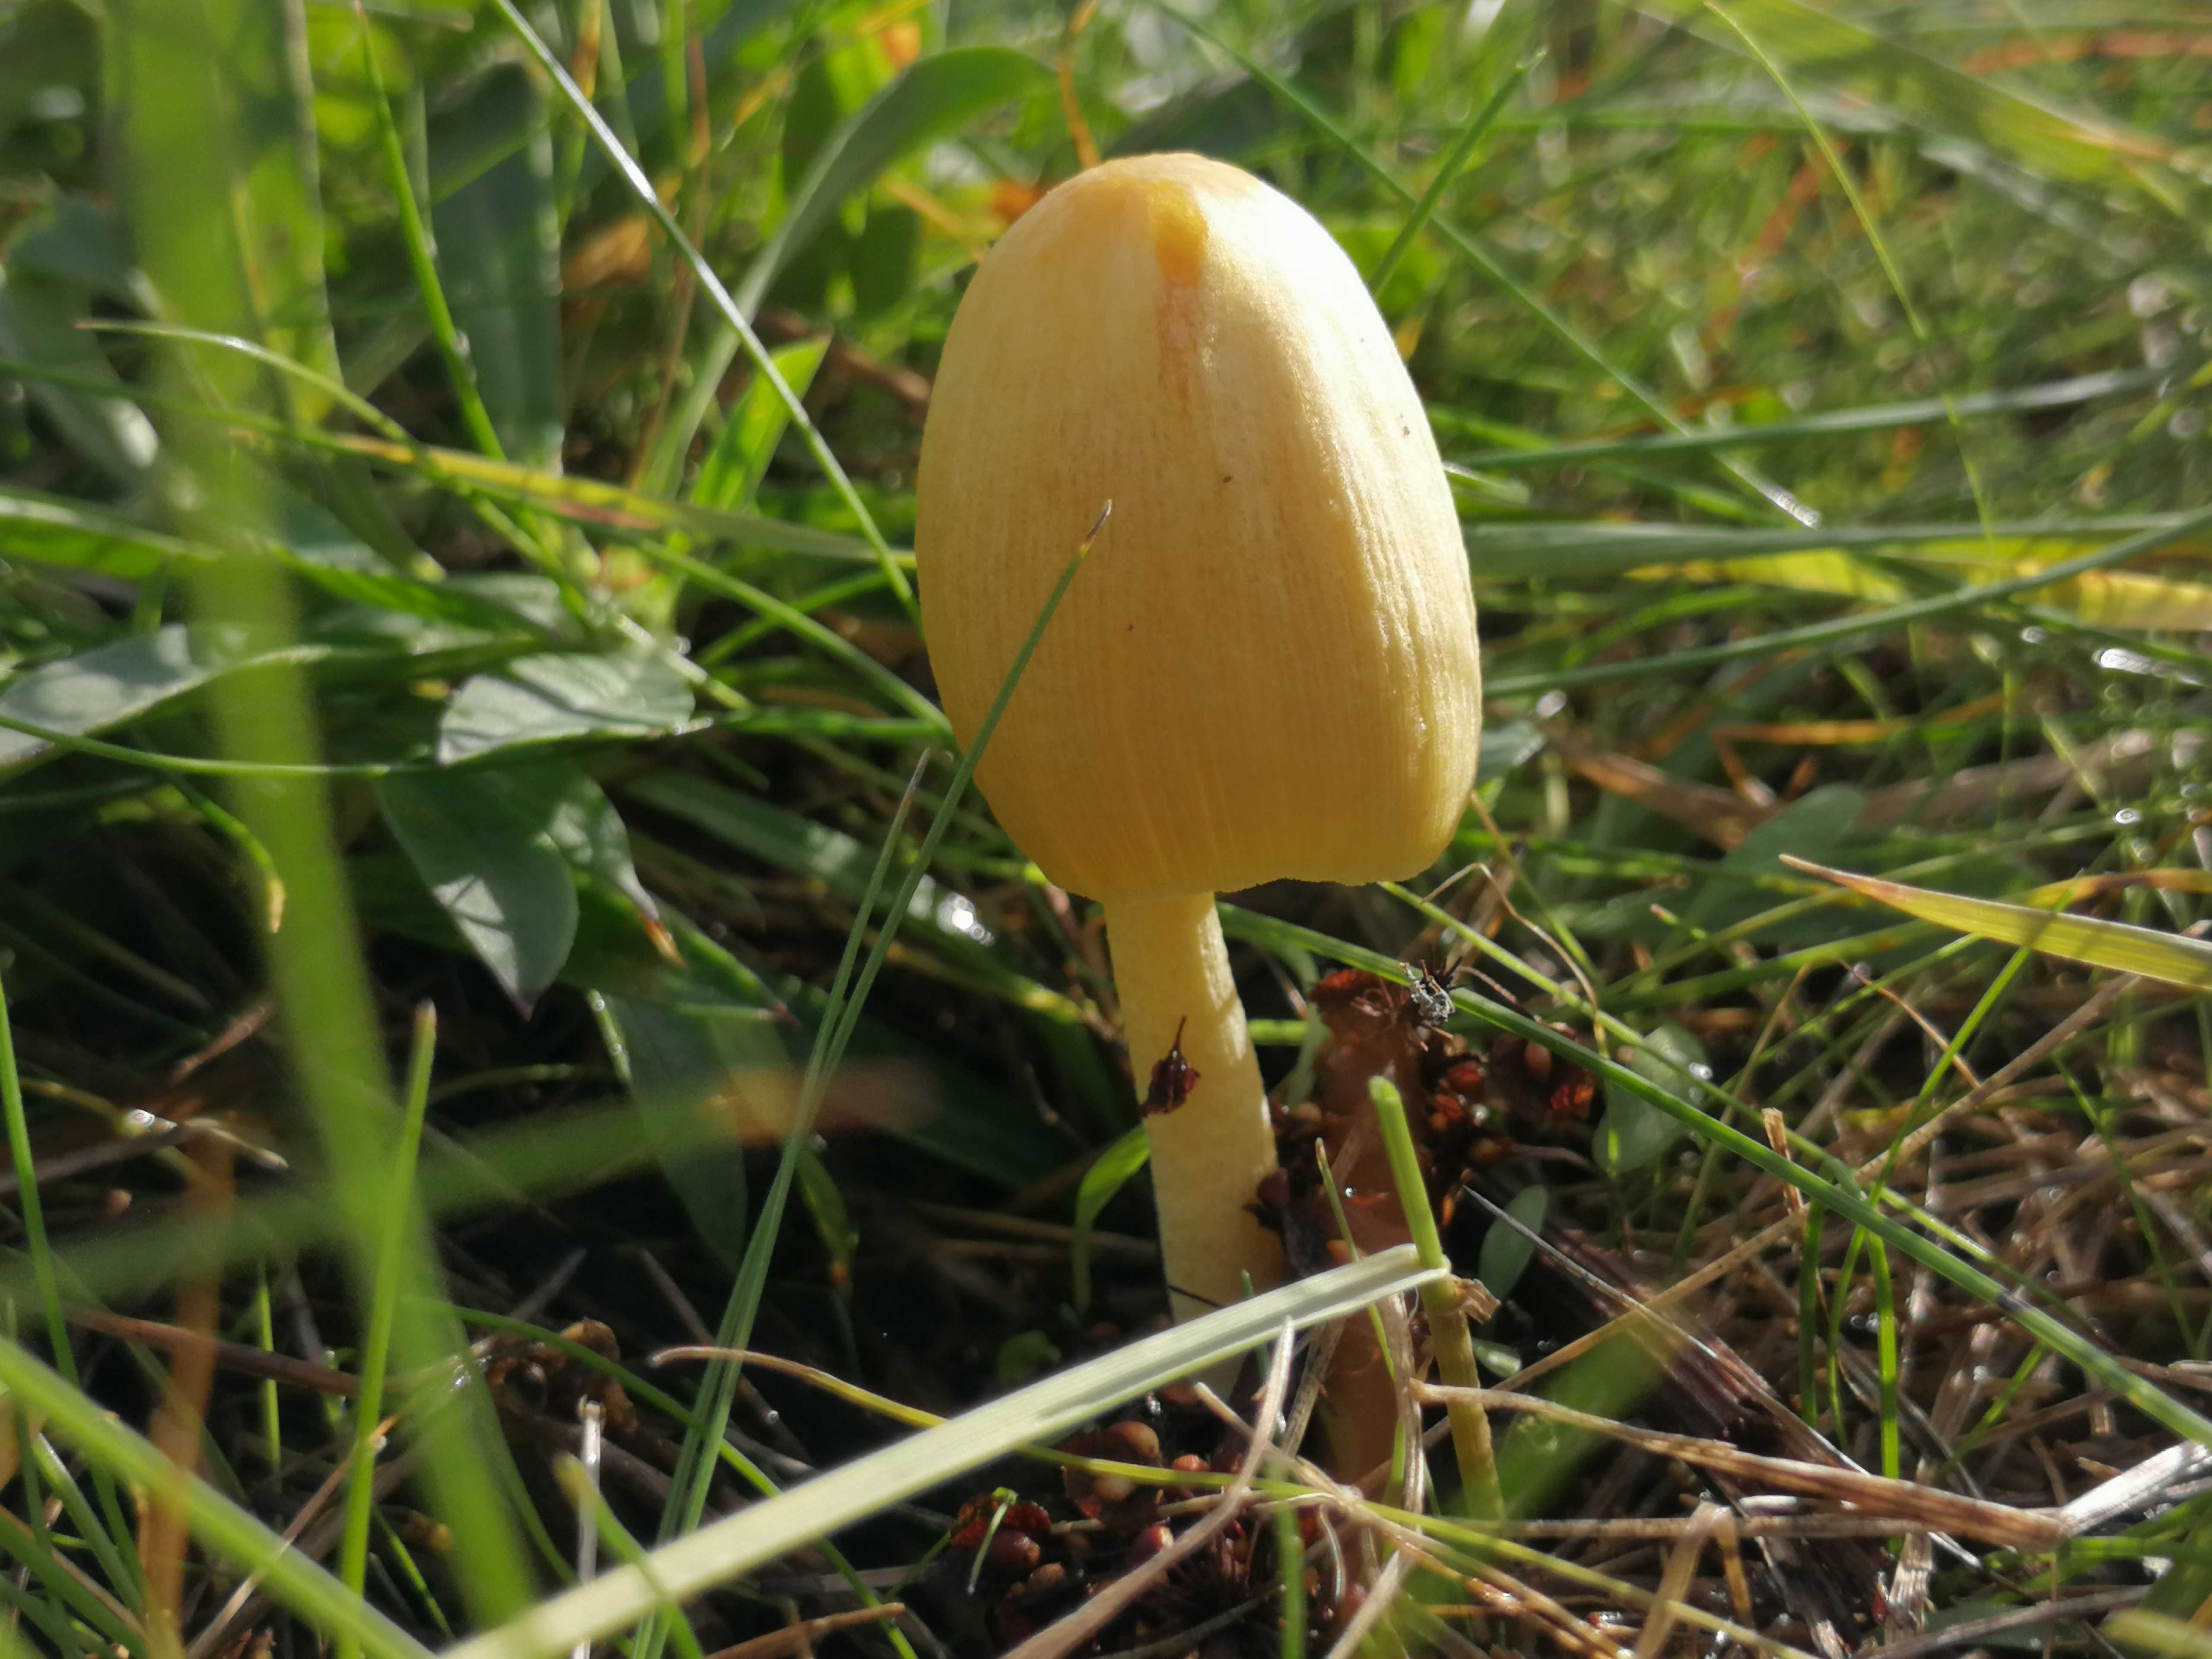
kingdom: Fungi
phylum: Basidiomycota
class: Agaricomycetes
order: Agaricales
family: Bolbitiaceae
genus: Bolbitius
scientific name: Bolbitius titubans
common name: almindelig gulhat
